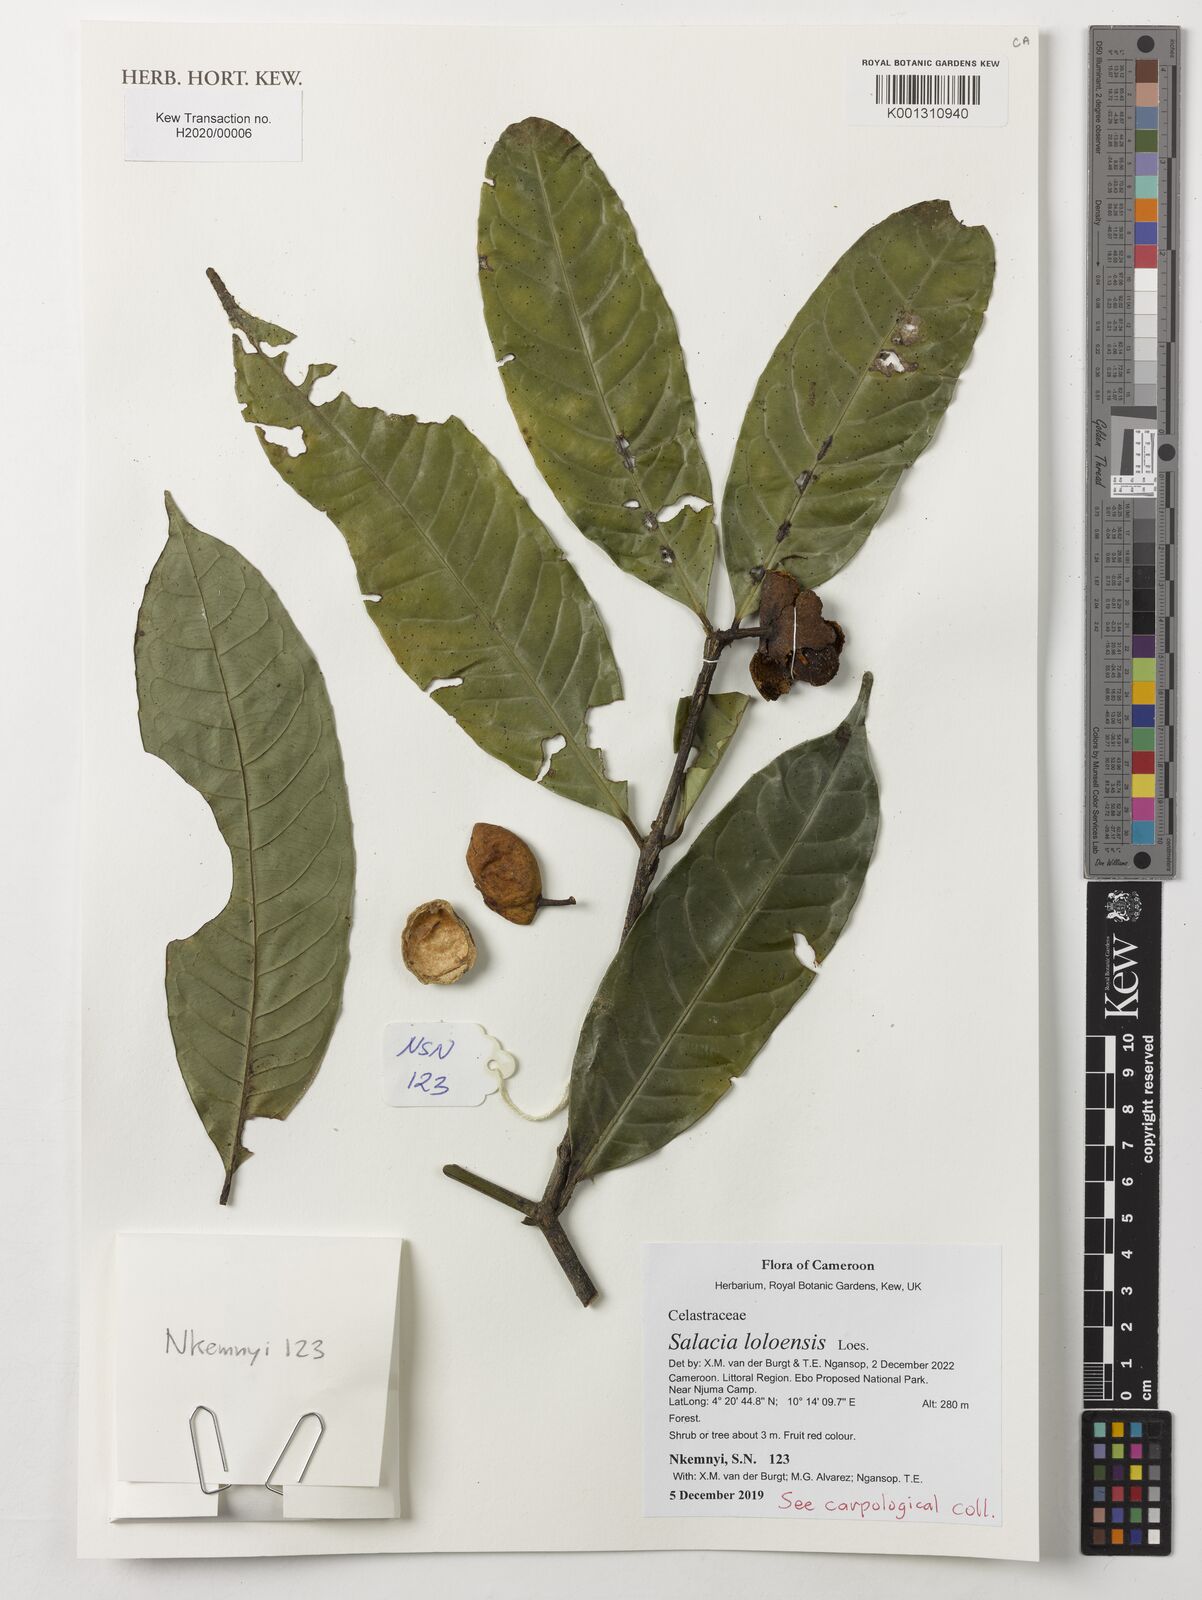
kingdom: Plantae
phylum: Tracheophyta
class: Magnoliopsida
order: Celastrales
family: Celastraceae
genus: Salacia
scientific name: Salacia loloensis
